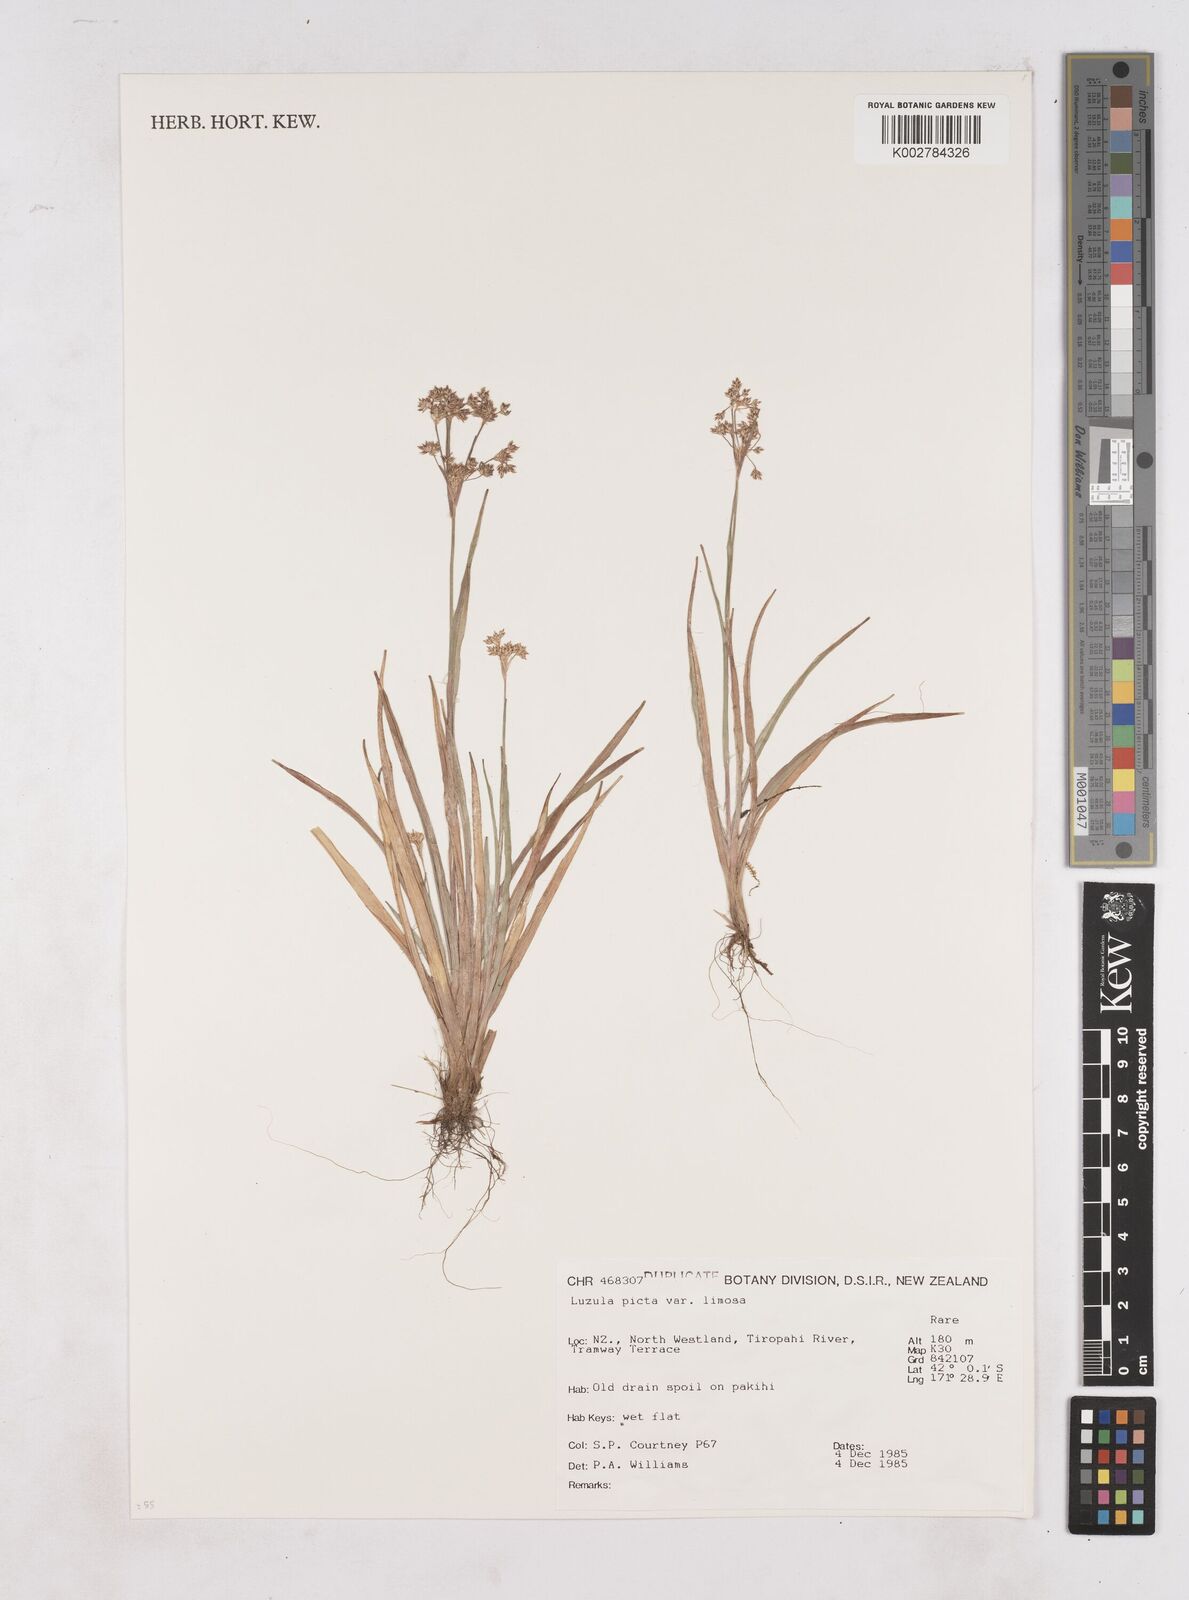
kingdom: Plantae
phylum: Tracheophyta
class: Liliopsida
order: Poales
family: Juncaceae
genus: Luzula
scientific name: Luzula picta
